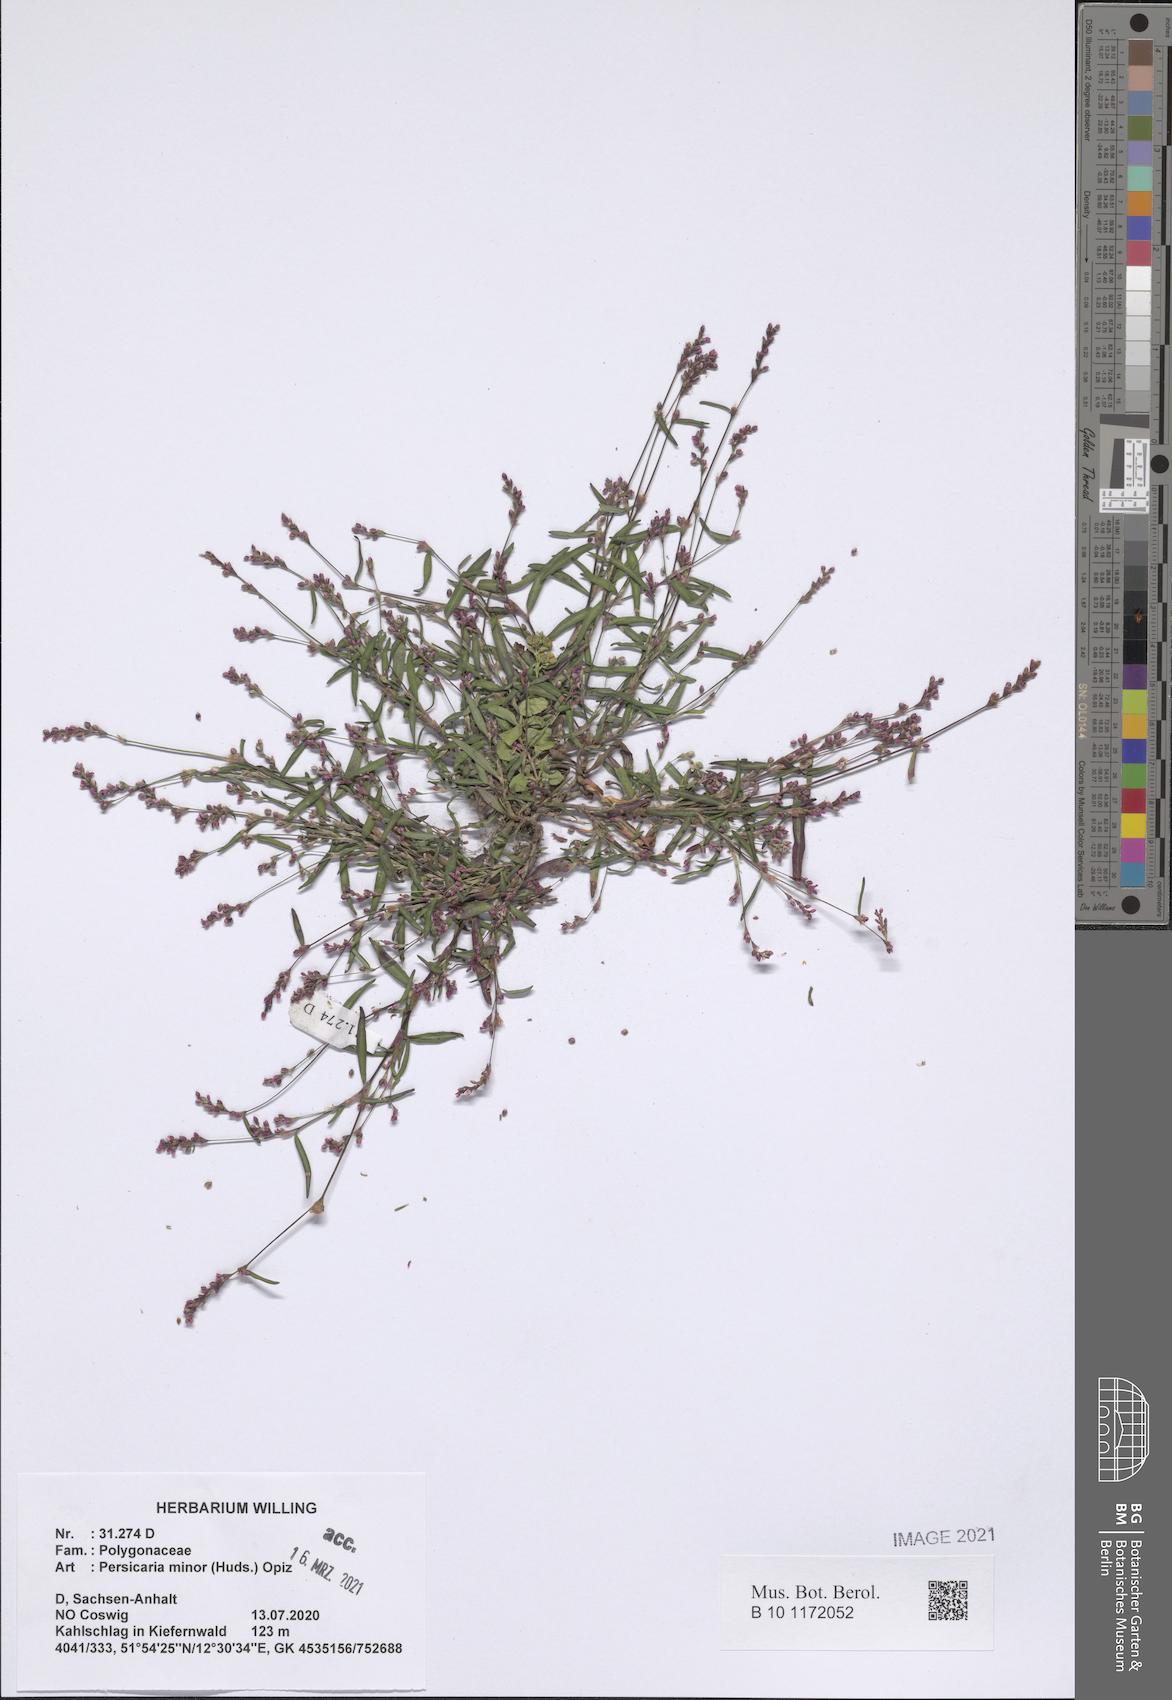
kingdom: Plantae
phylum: Tracheophyta
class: Magnoliopsida
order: Caryophyllales
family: Polygonaceae
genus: Persicaria
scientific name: Persicaria minor
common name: Small water-pepper
